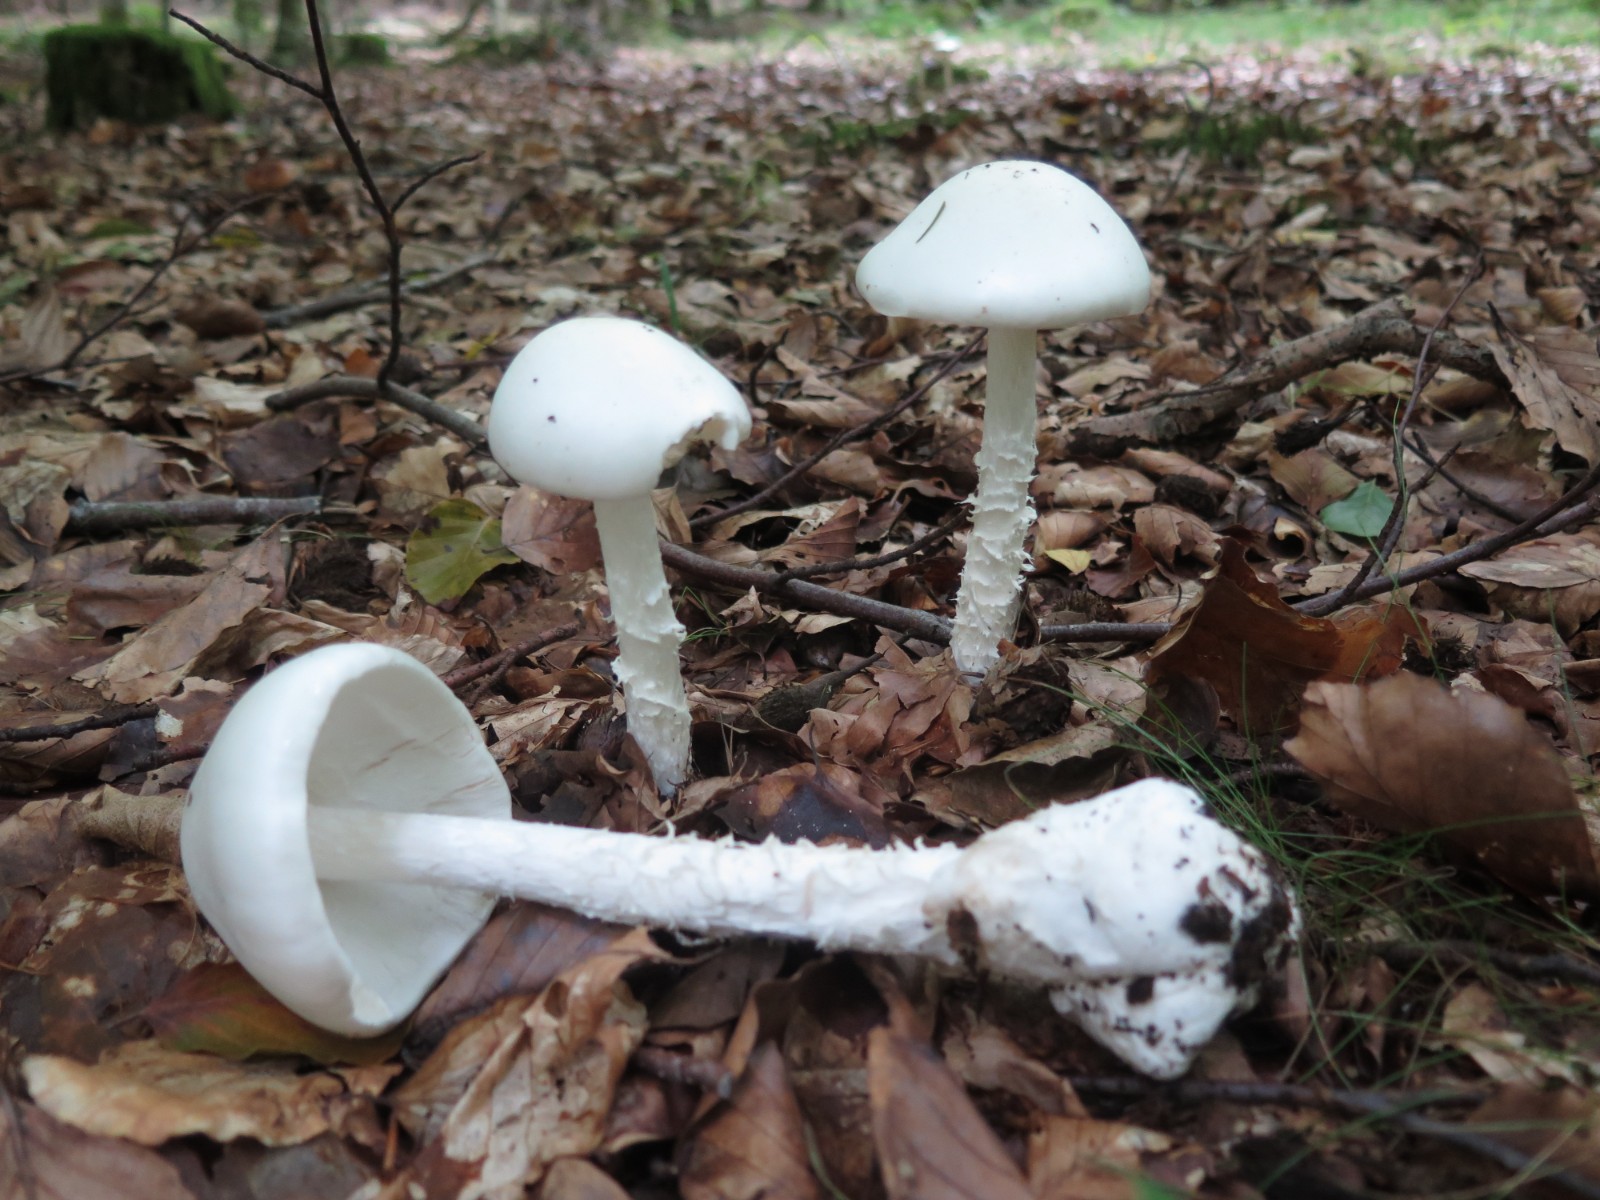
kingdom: Fungi
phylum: Basidiomycota
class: Agaricomycetes
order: Agaricales
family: Amanitaceae
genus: Amanita
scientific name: Amanita virosa
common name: snehvid fluesvamp
